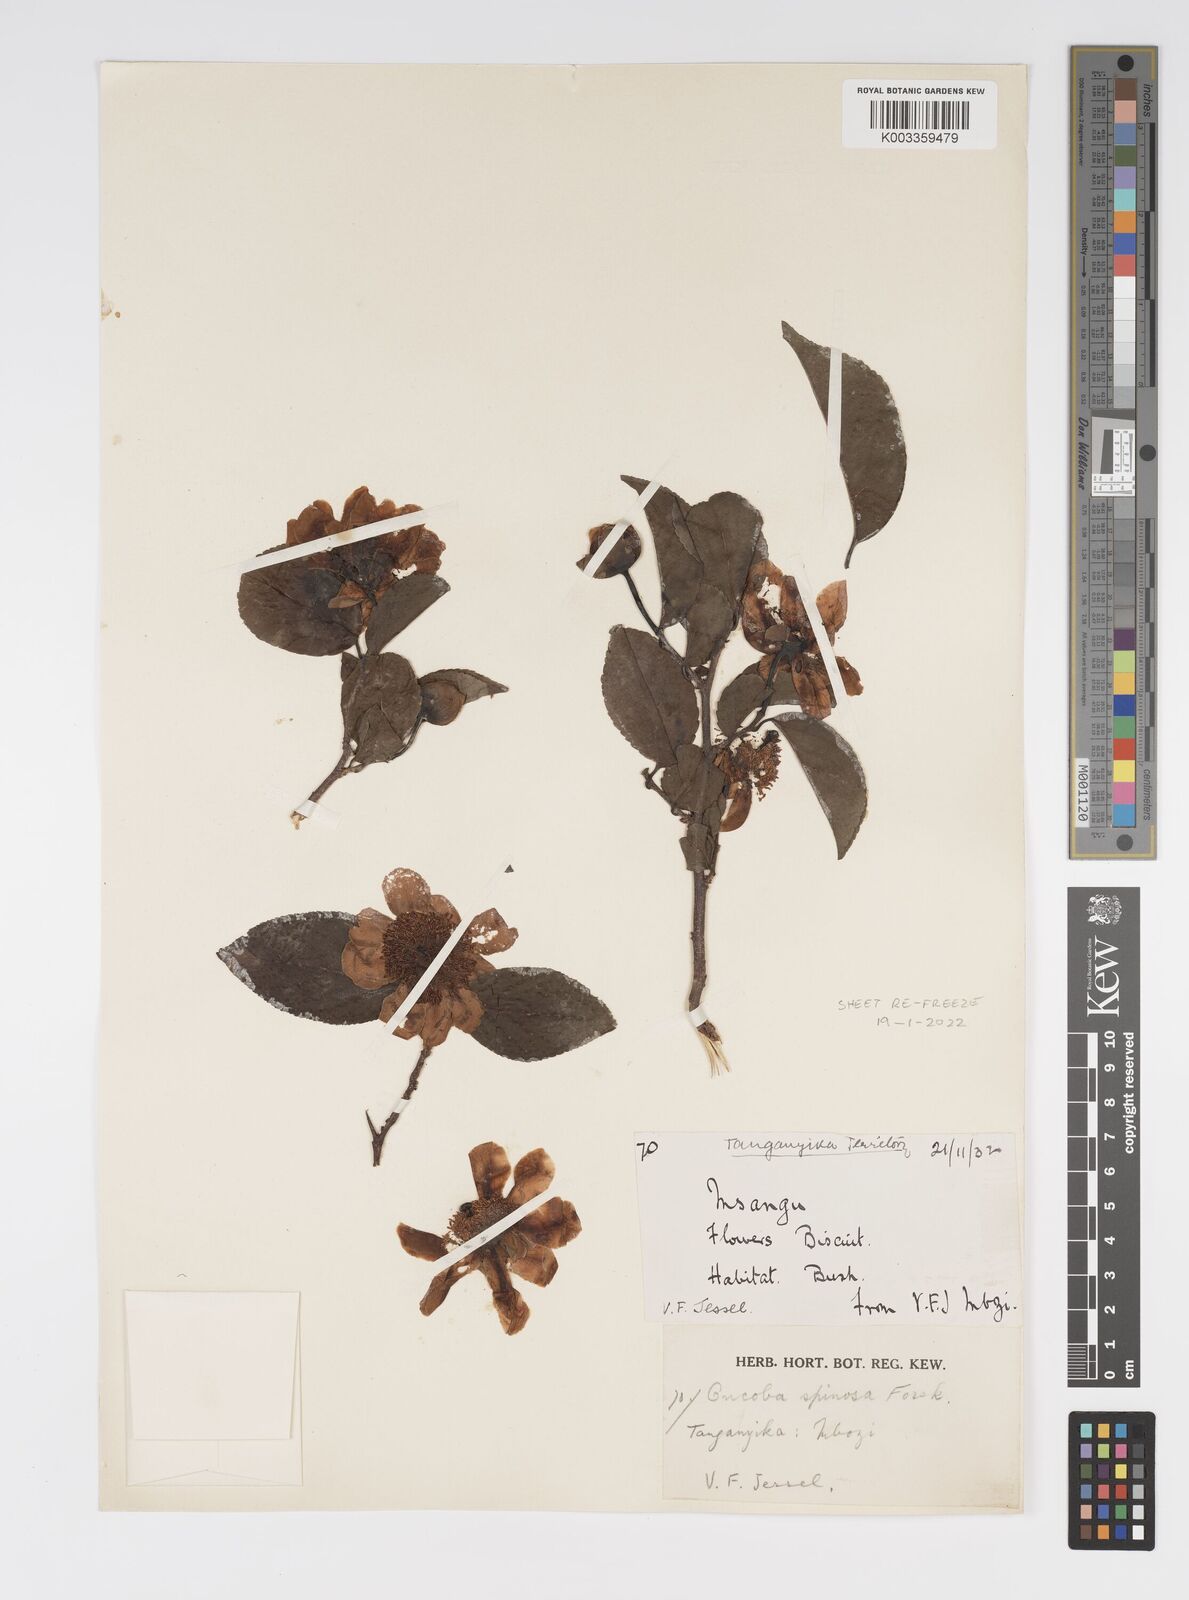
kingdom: Plantae
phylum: Tracheophyta
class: Magnoliopsida
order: Malpighiales
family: Salicaceae
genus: Oncoba
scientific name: Oncoba spinosa
